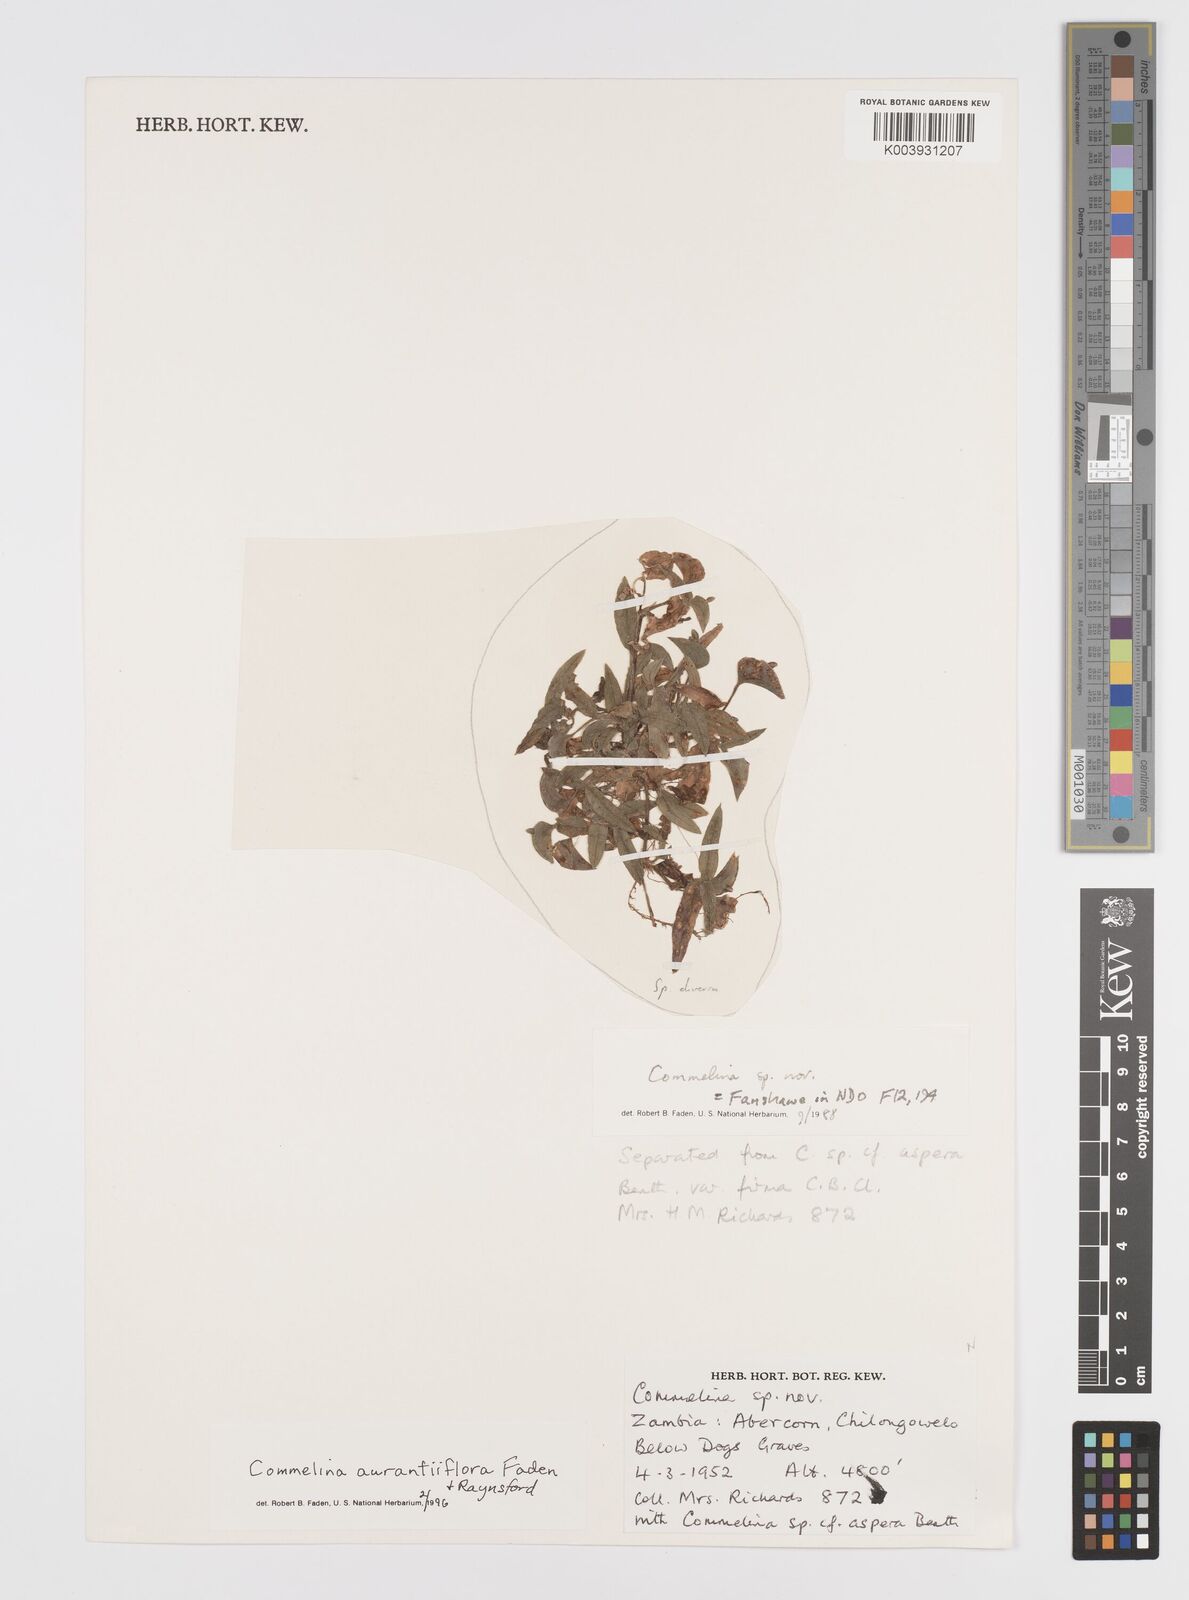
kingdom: Plantae
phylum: Tracheophyta
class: Liliopsida
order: Commelinales
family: Commelinaceae
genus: Commelina
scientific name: Commelina aurantiiflora
